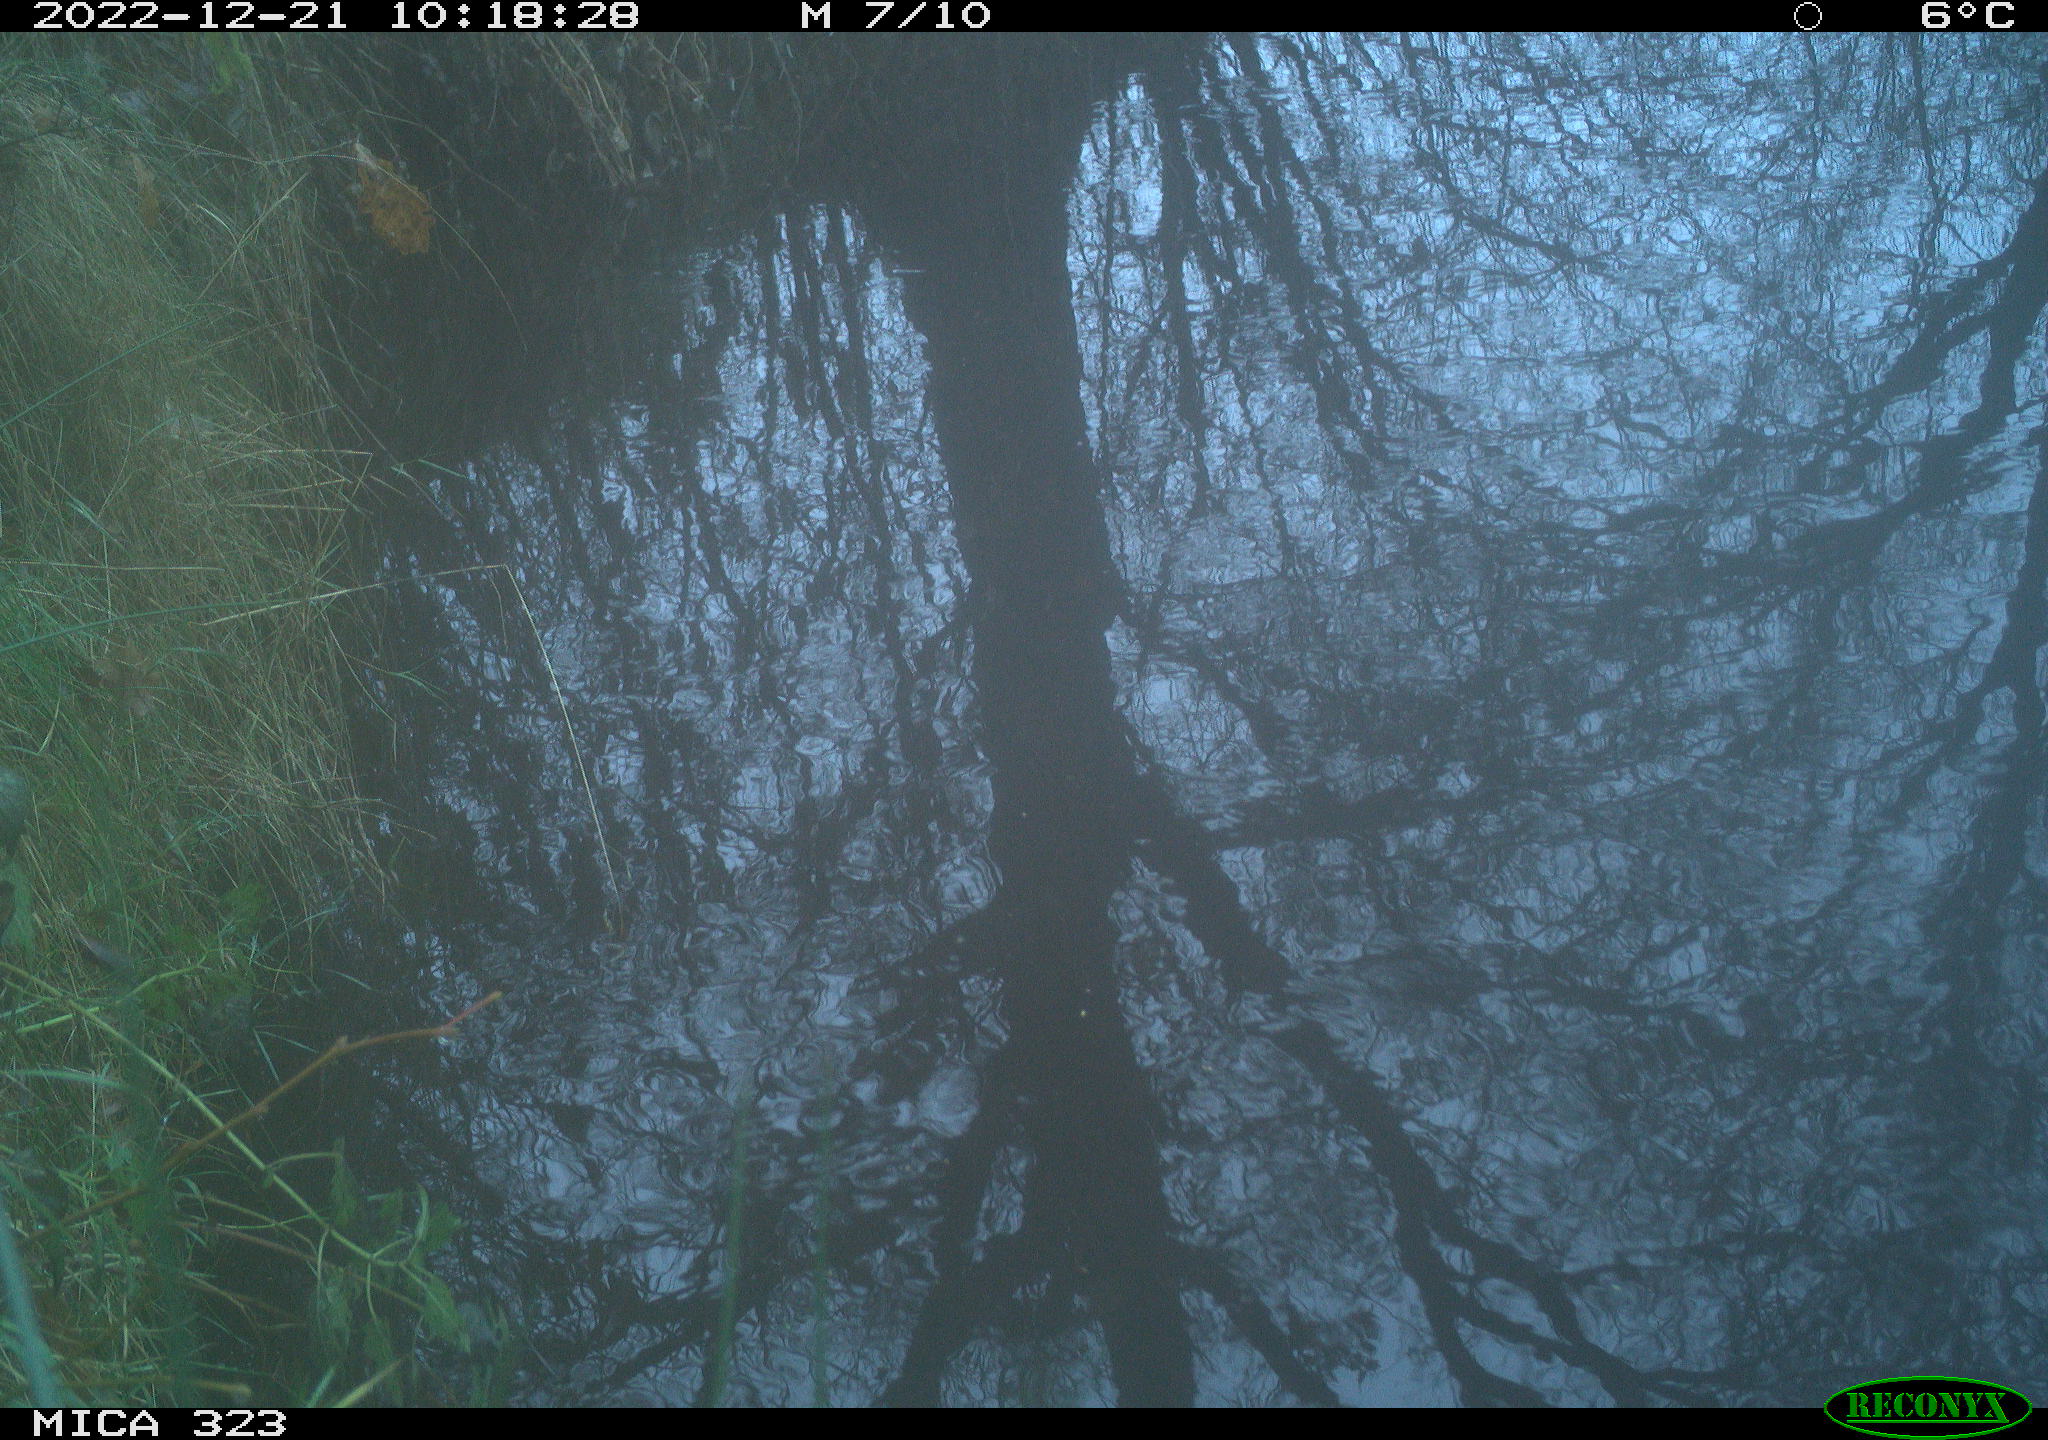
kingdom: Animalia
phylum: Chordata
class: Aves
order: Pelecaniformes
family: Ardeidae
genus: Ardea
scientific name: Ardea alba
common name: Great egret
